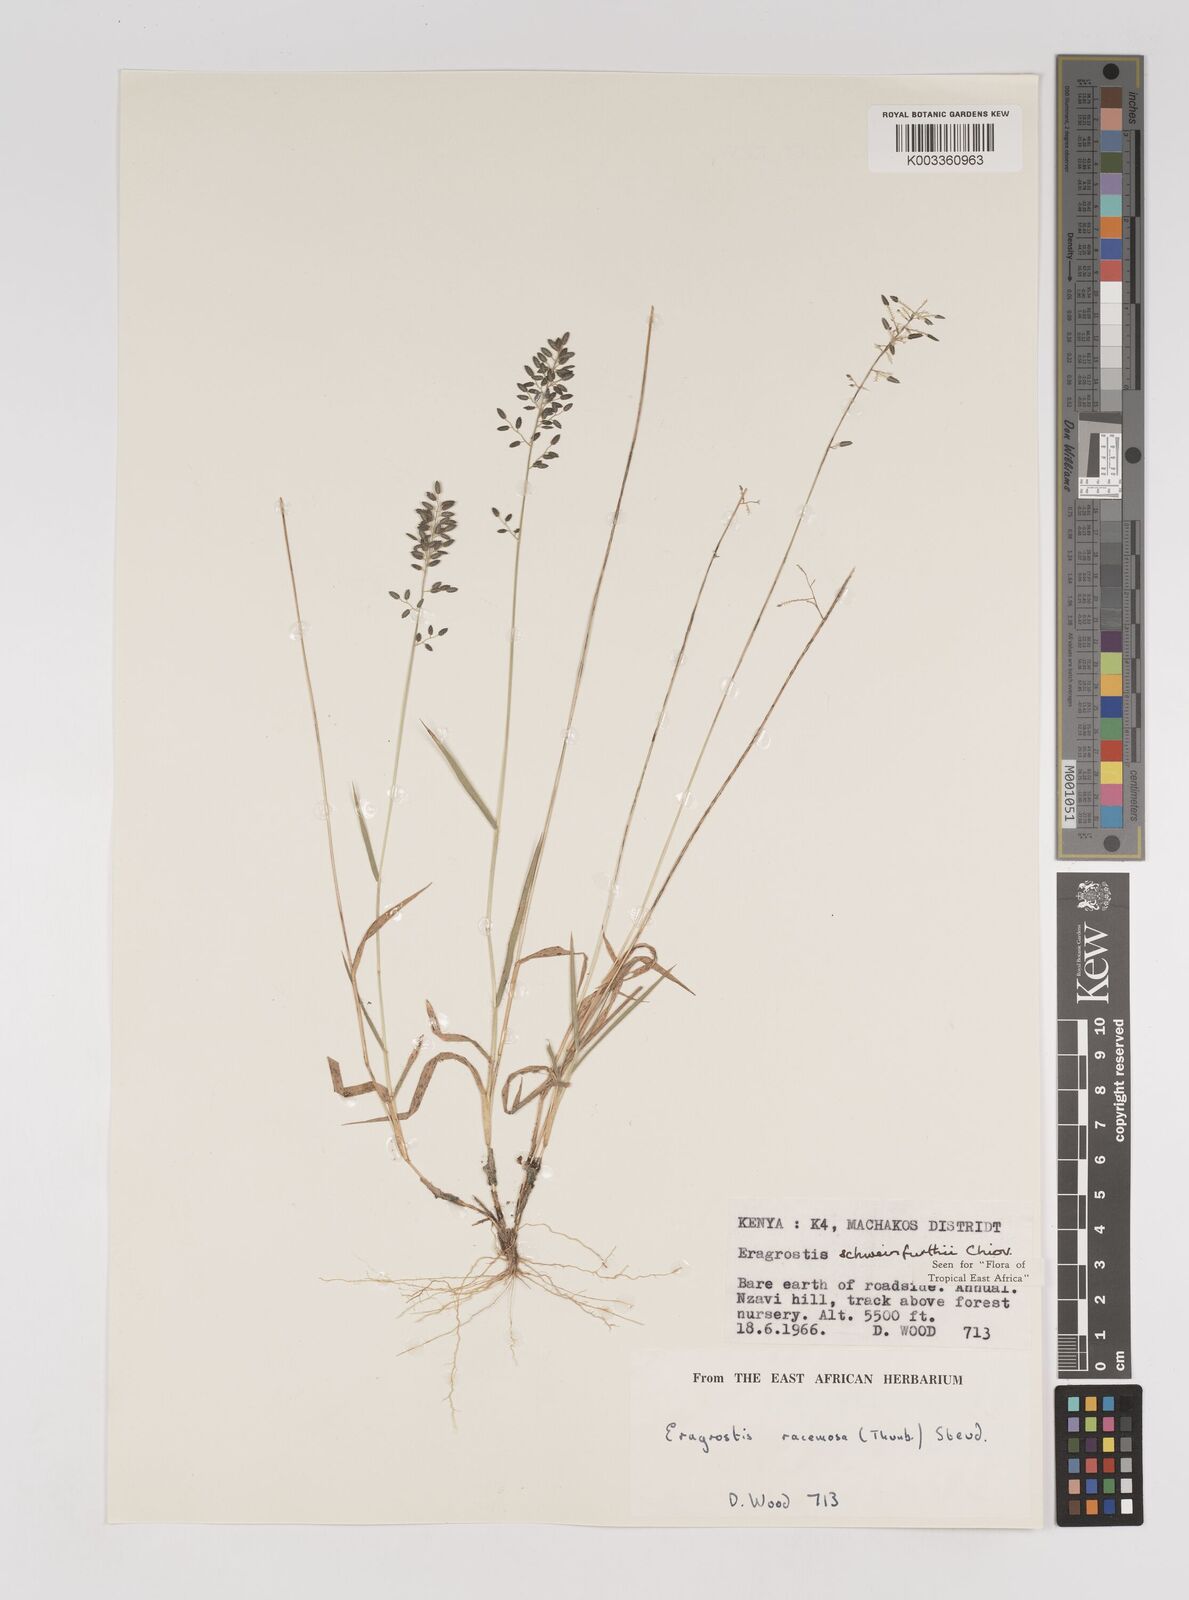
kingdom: Plantae
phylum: Tracheophyta
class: Liliopsida
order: Poales
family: Poaceae
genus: Eragrostis
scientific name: Eragrostis schweinfurthii
